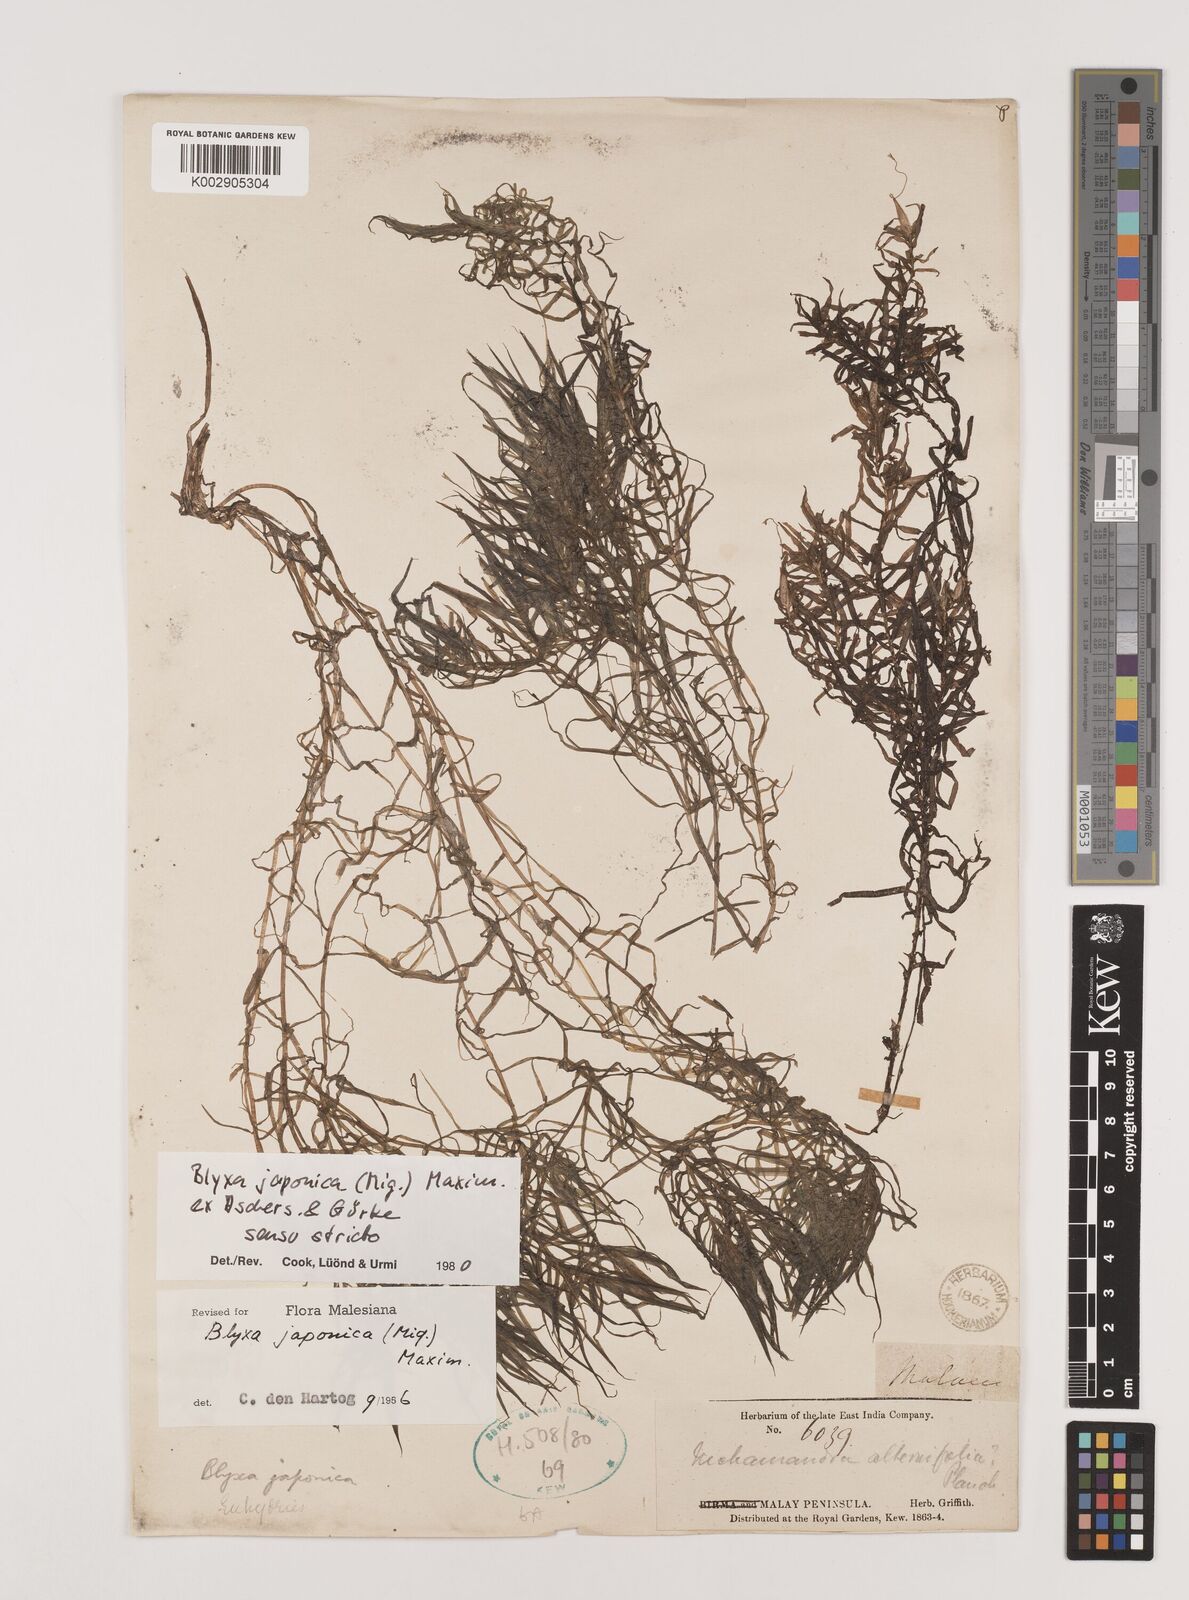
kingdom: Plantae
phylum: Tracheophyta
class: Liliopsida
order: Alismatales
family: Hydrocharitaceae
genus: Blyxa
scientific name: Blyxa japonica
